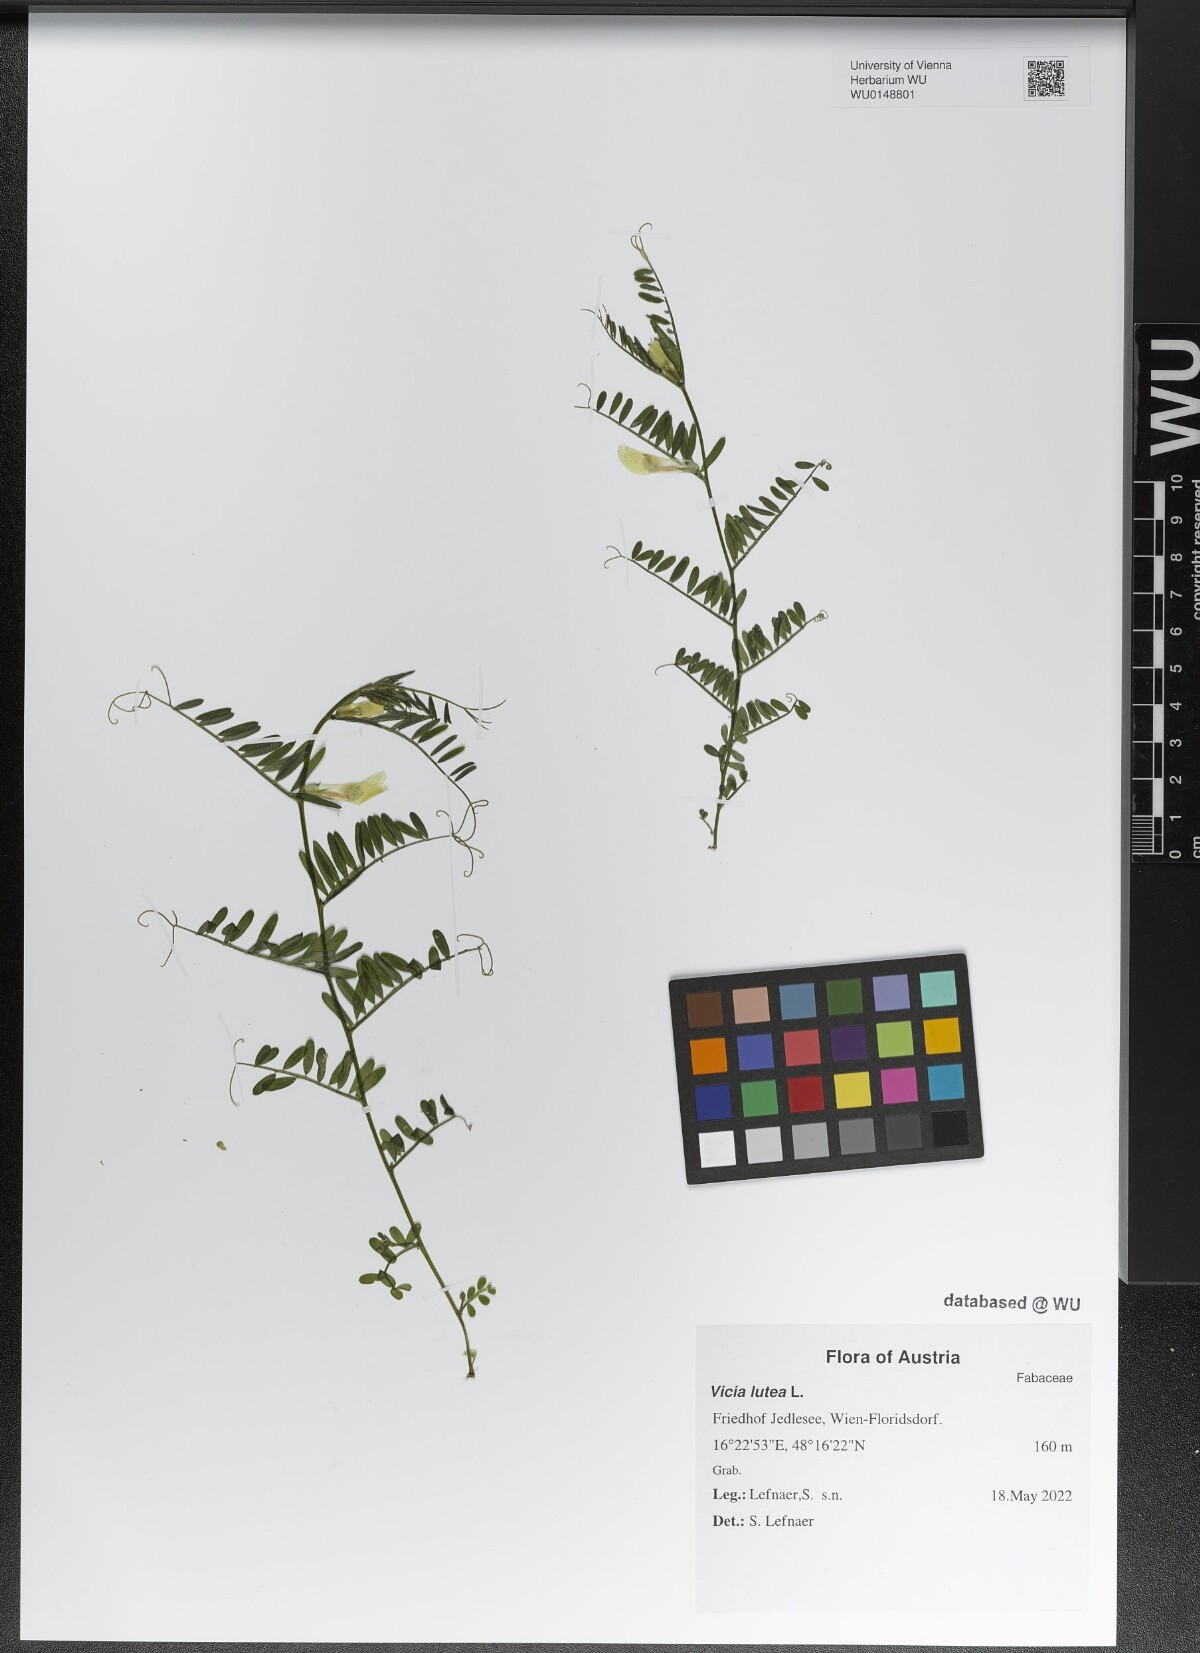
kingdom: Plantae
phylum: Tracheophyta
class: Magnoliopsida
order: Fabales
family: Fabaceae
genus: Vicia
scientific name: Vicia lutea
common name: Smooth yellow vetch
